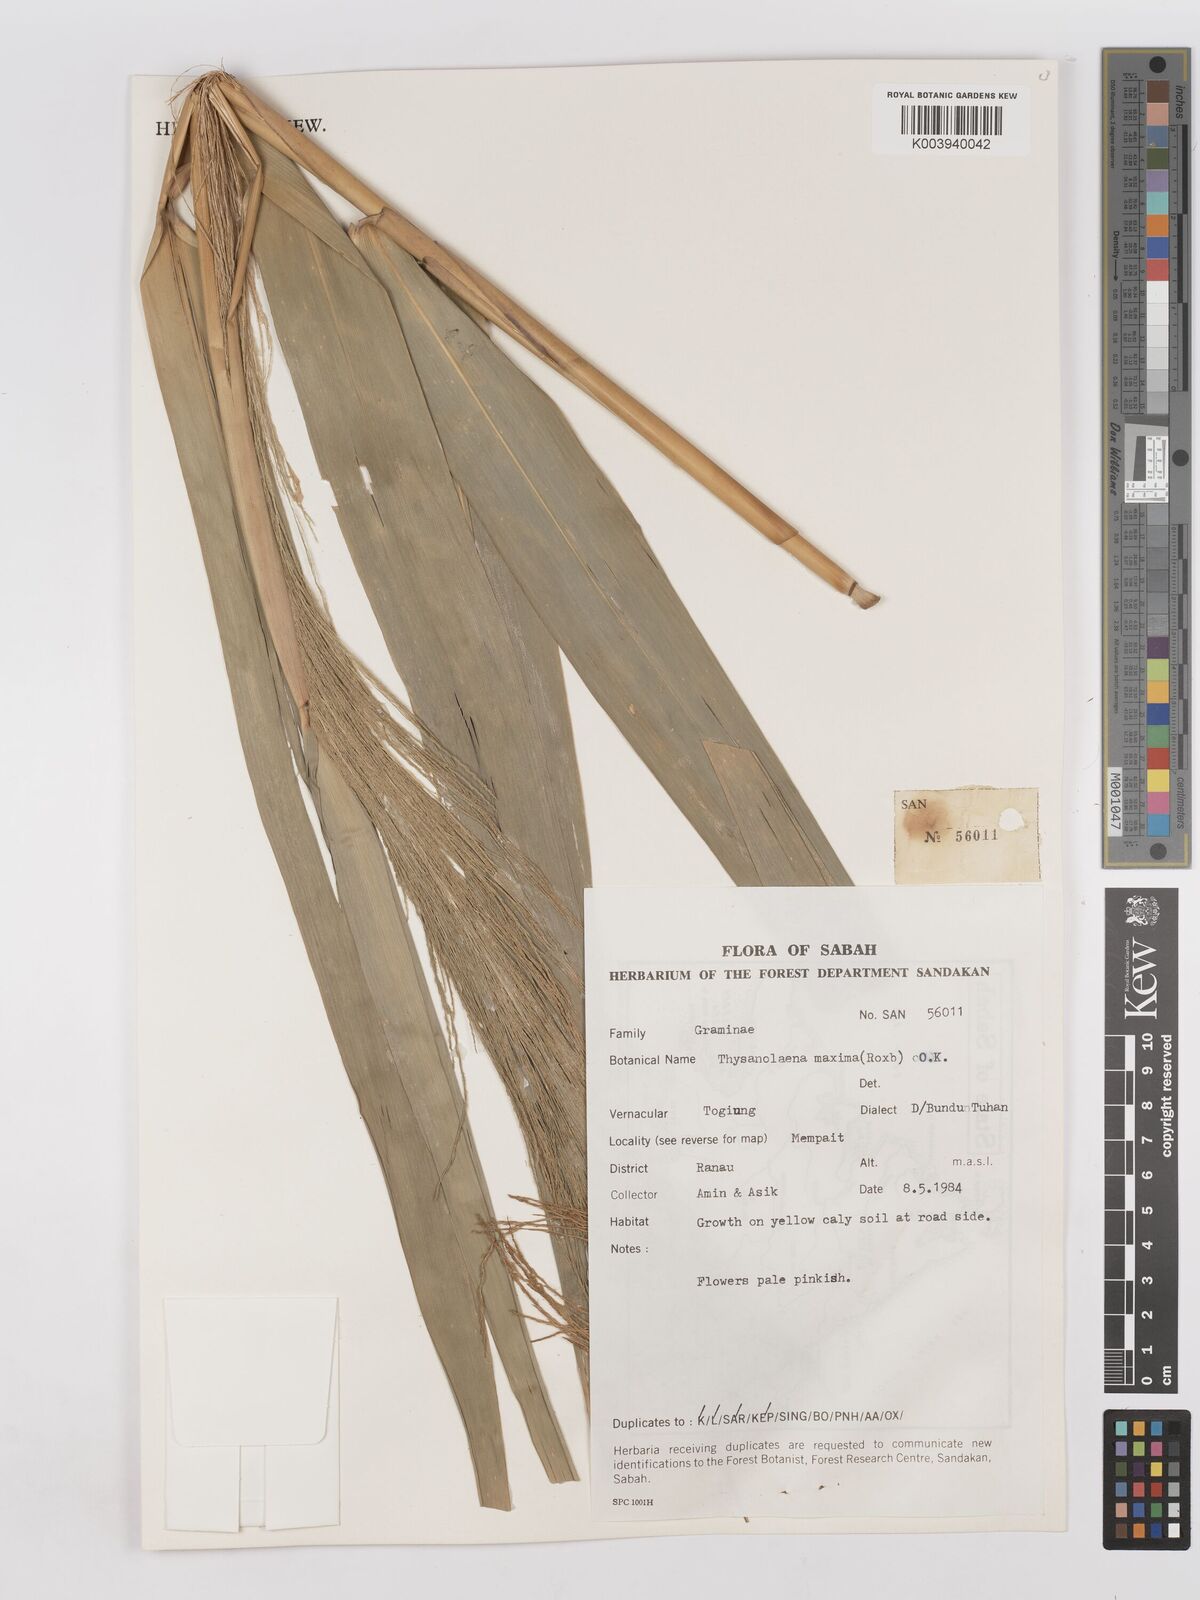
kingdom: Plantae
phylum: Tracheophyta
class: Liliopsida
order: Poales
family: Poaceae
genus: Thysanolaena
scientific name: Thysanolaena latifolia
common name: Tiger grass
